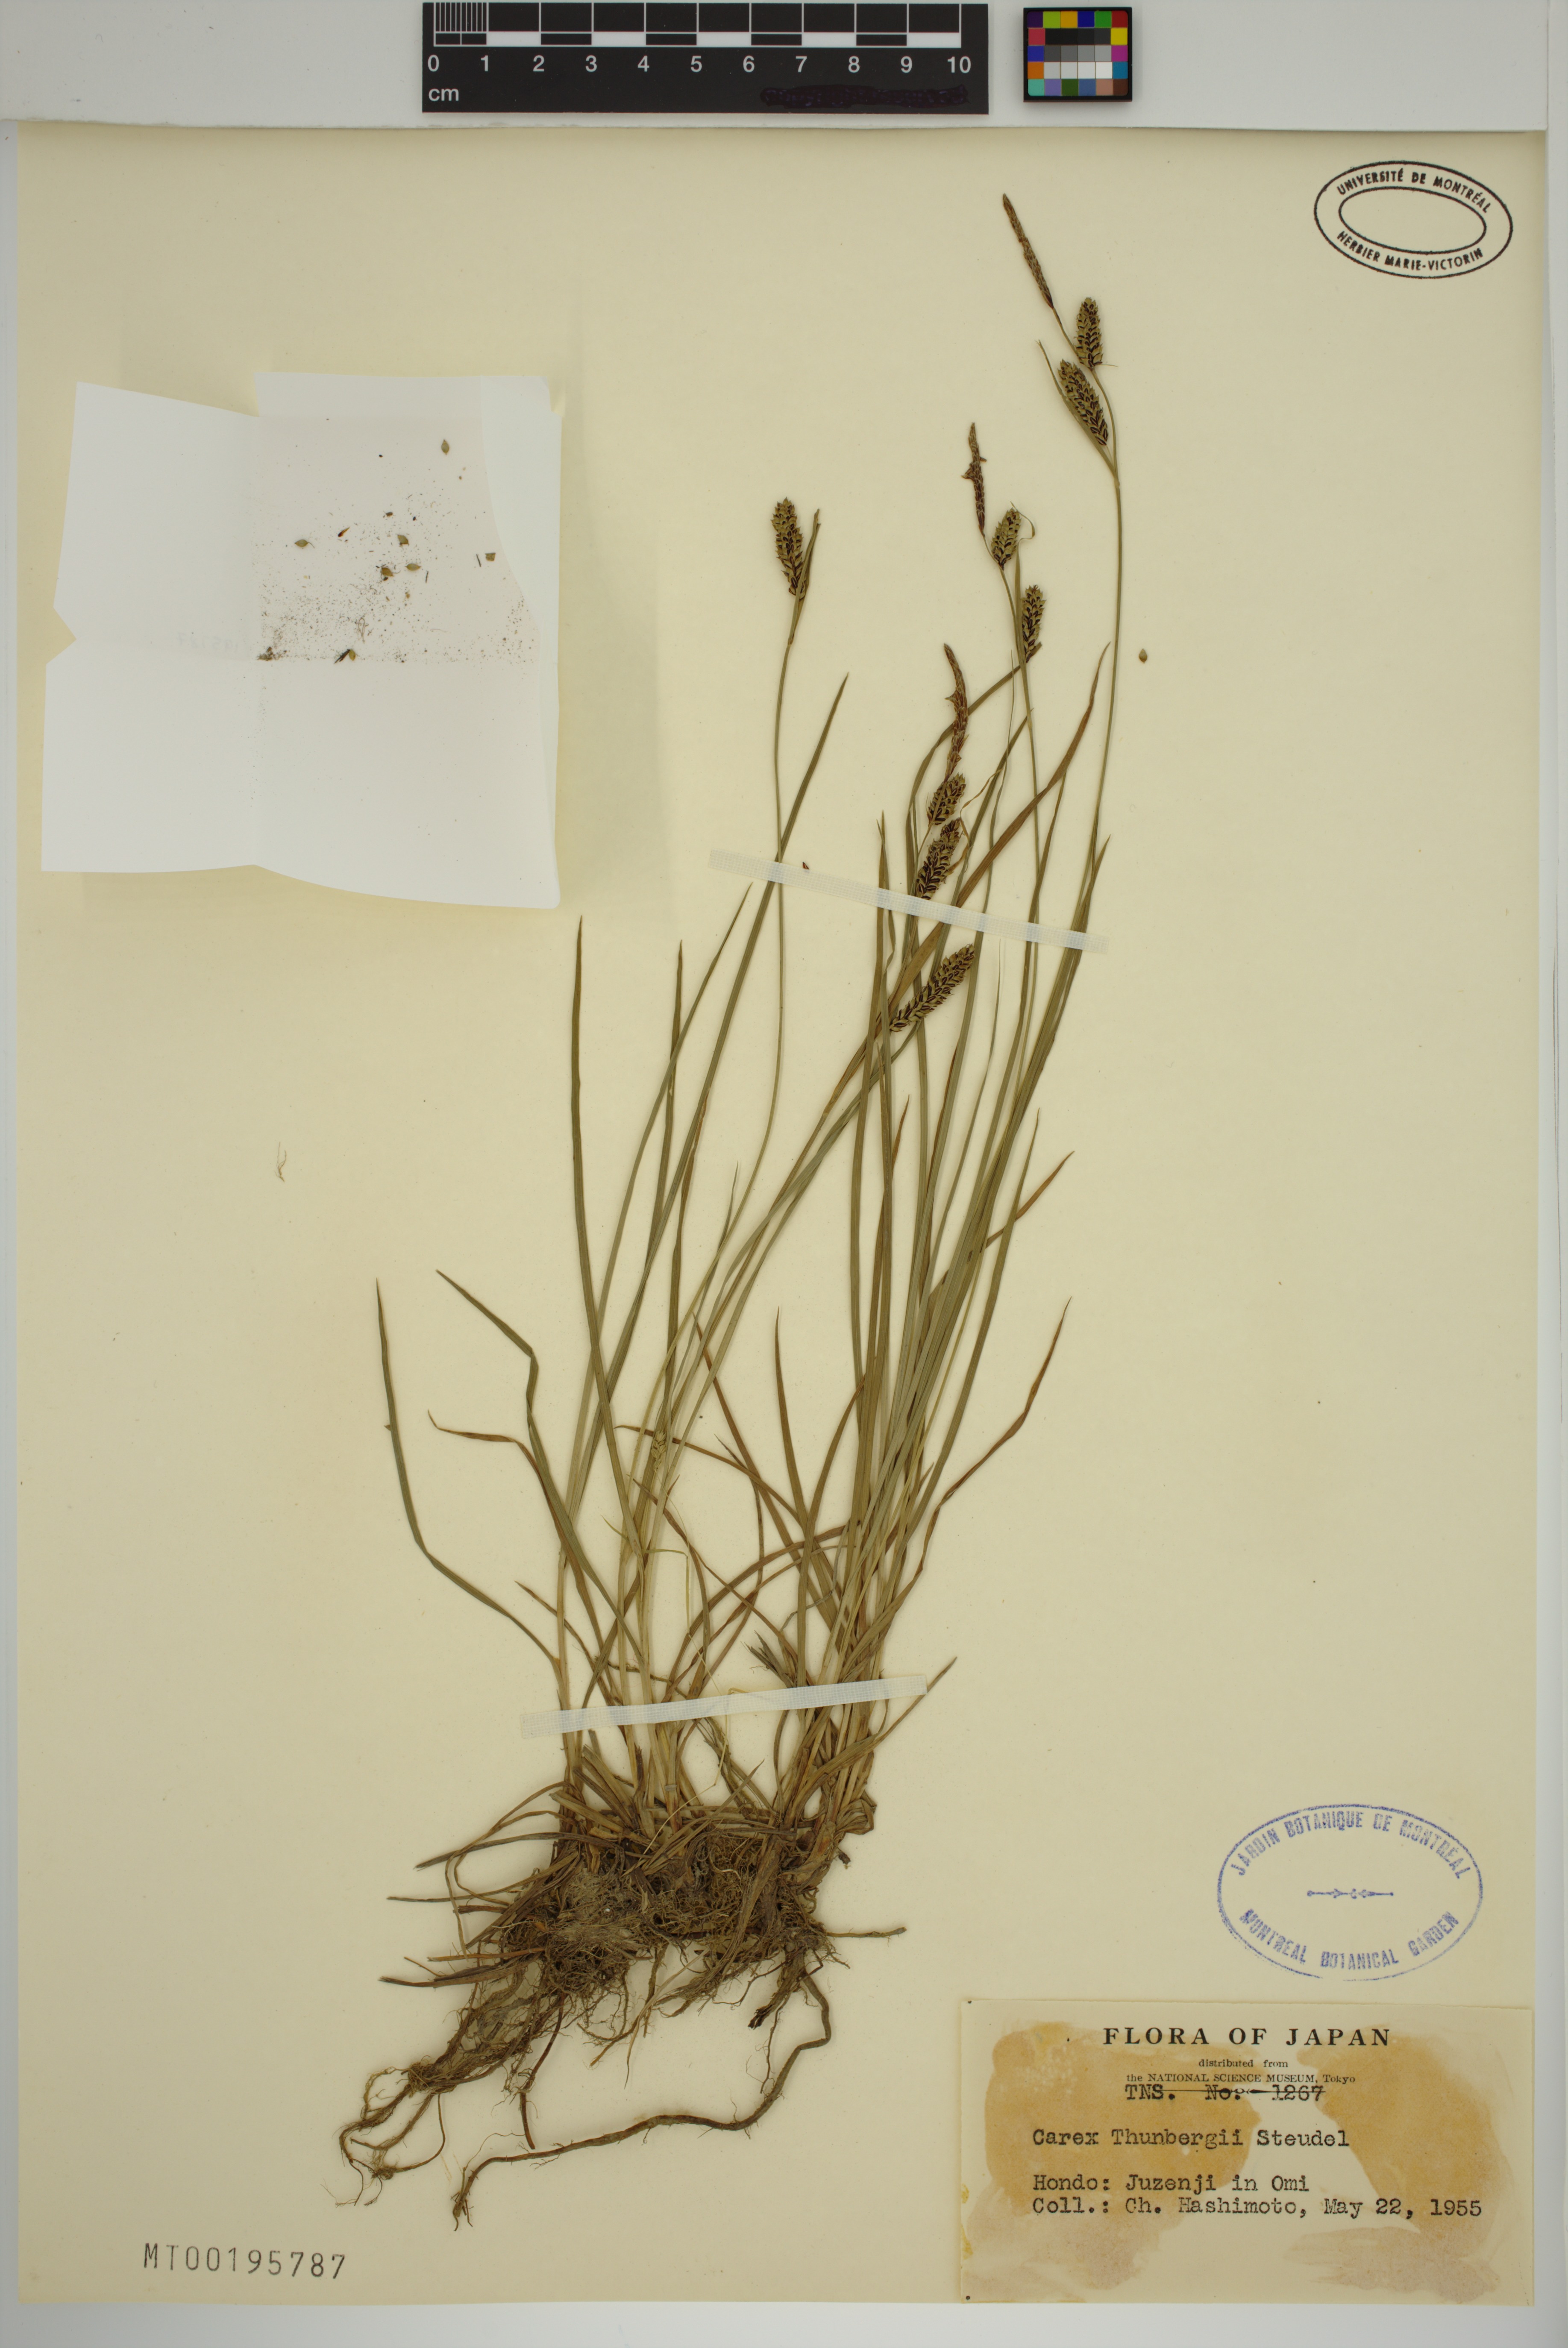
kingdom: Plantae
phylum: Tracheophyta
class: Liliopsida
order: Poales
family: Cyperaceae
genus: Carex
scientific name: Carex thunbergii
